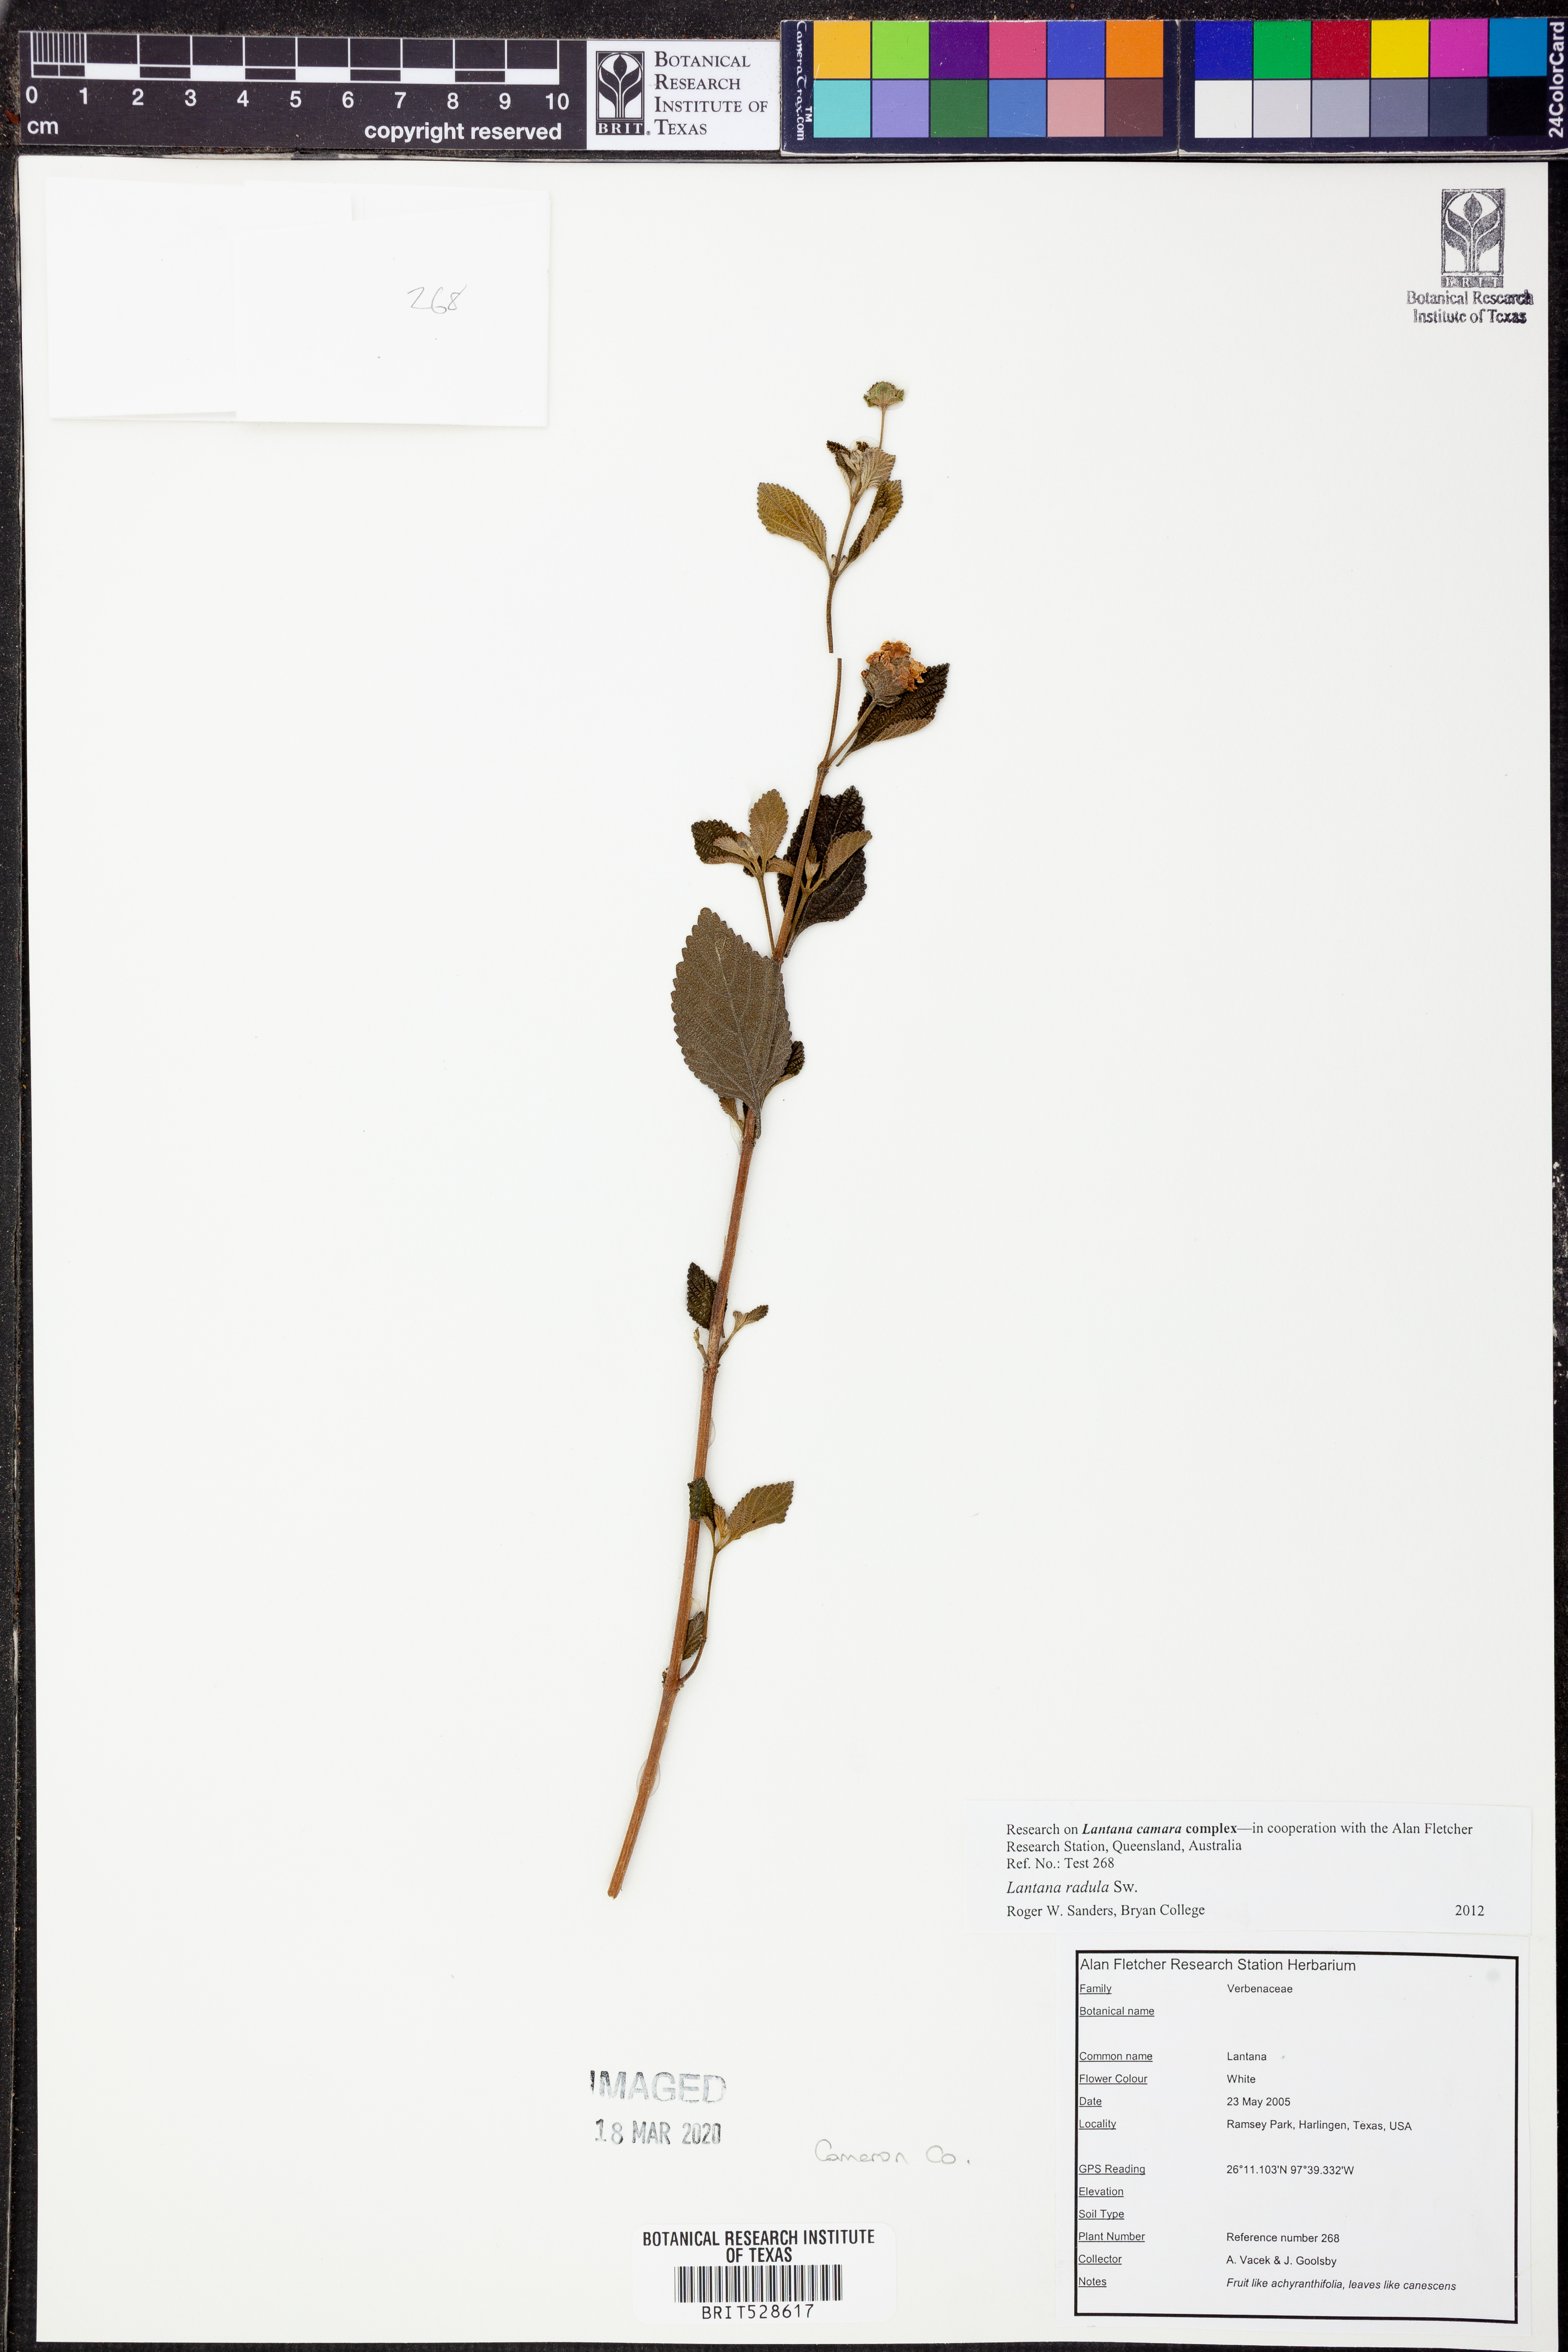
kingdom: Plantae
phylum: Tracheophyta
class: Magnoliopsida
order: Lamiales
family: Verbenaceae
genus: Lantana
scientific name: Lantana radula
